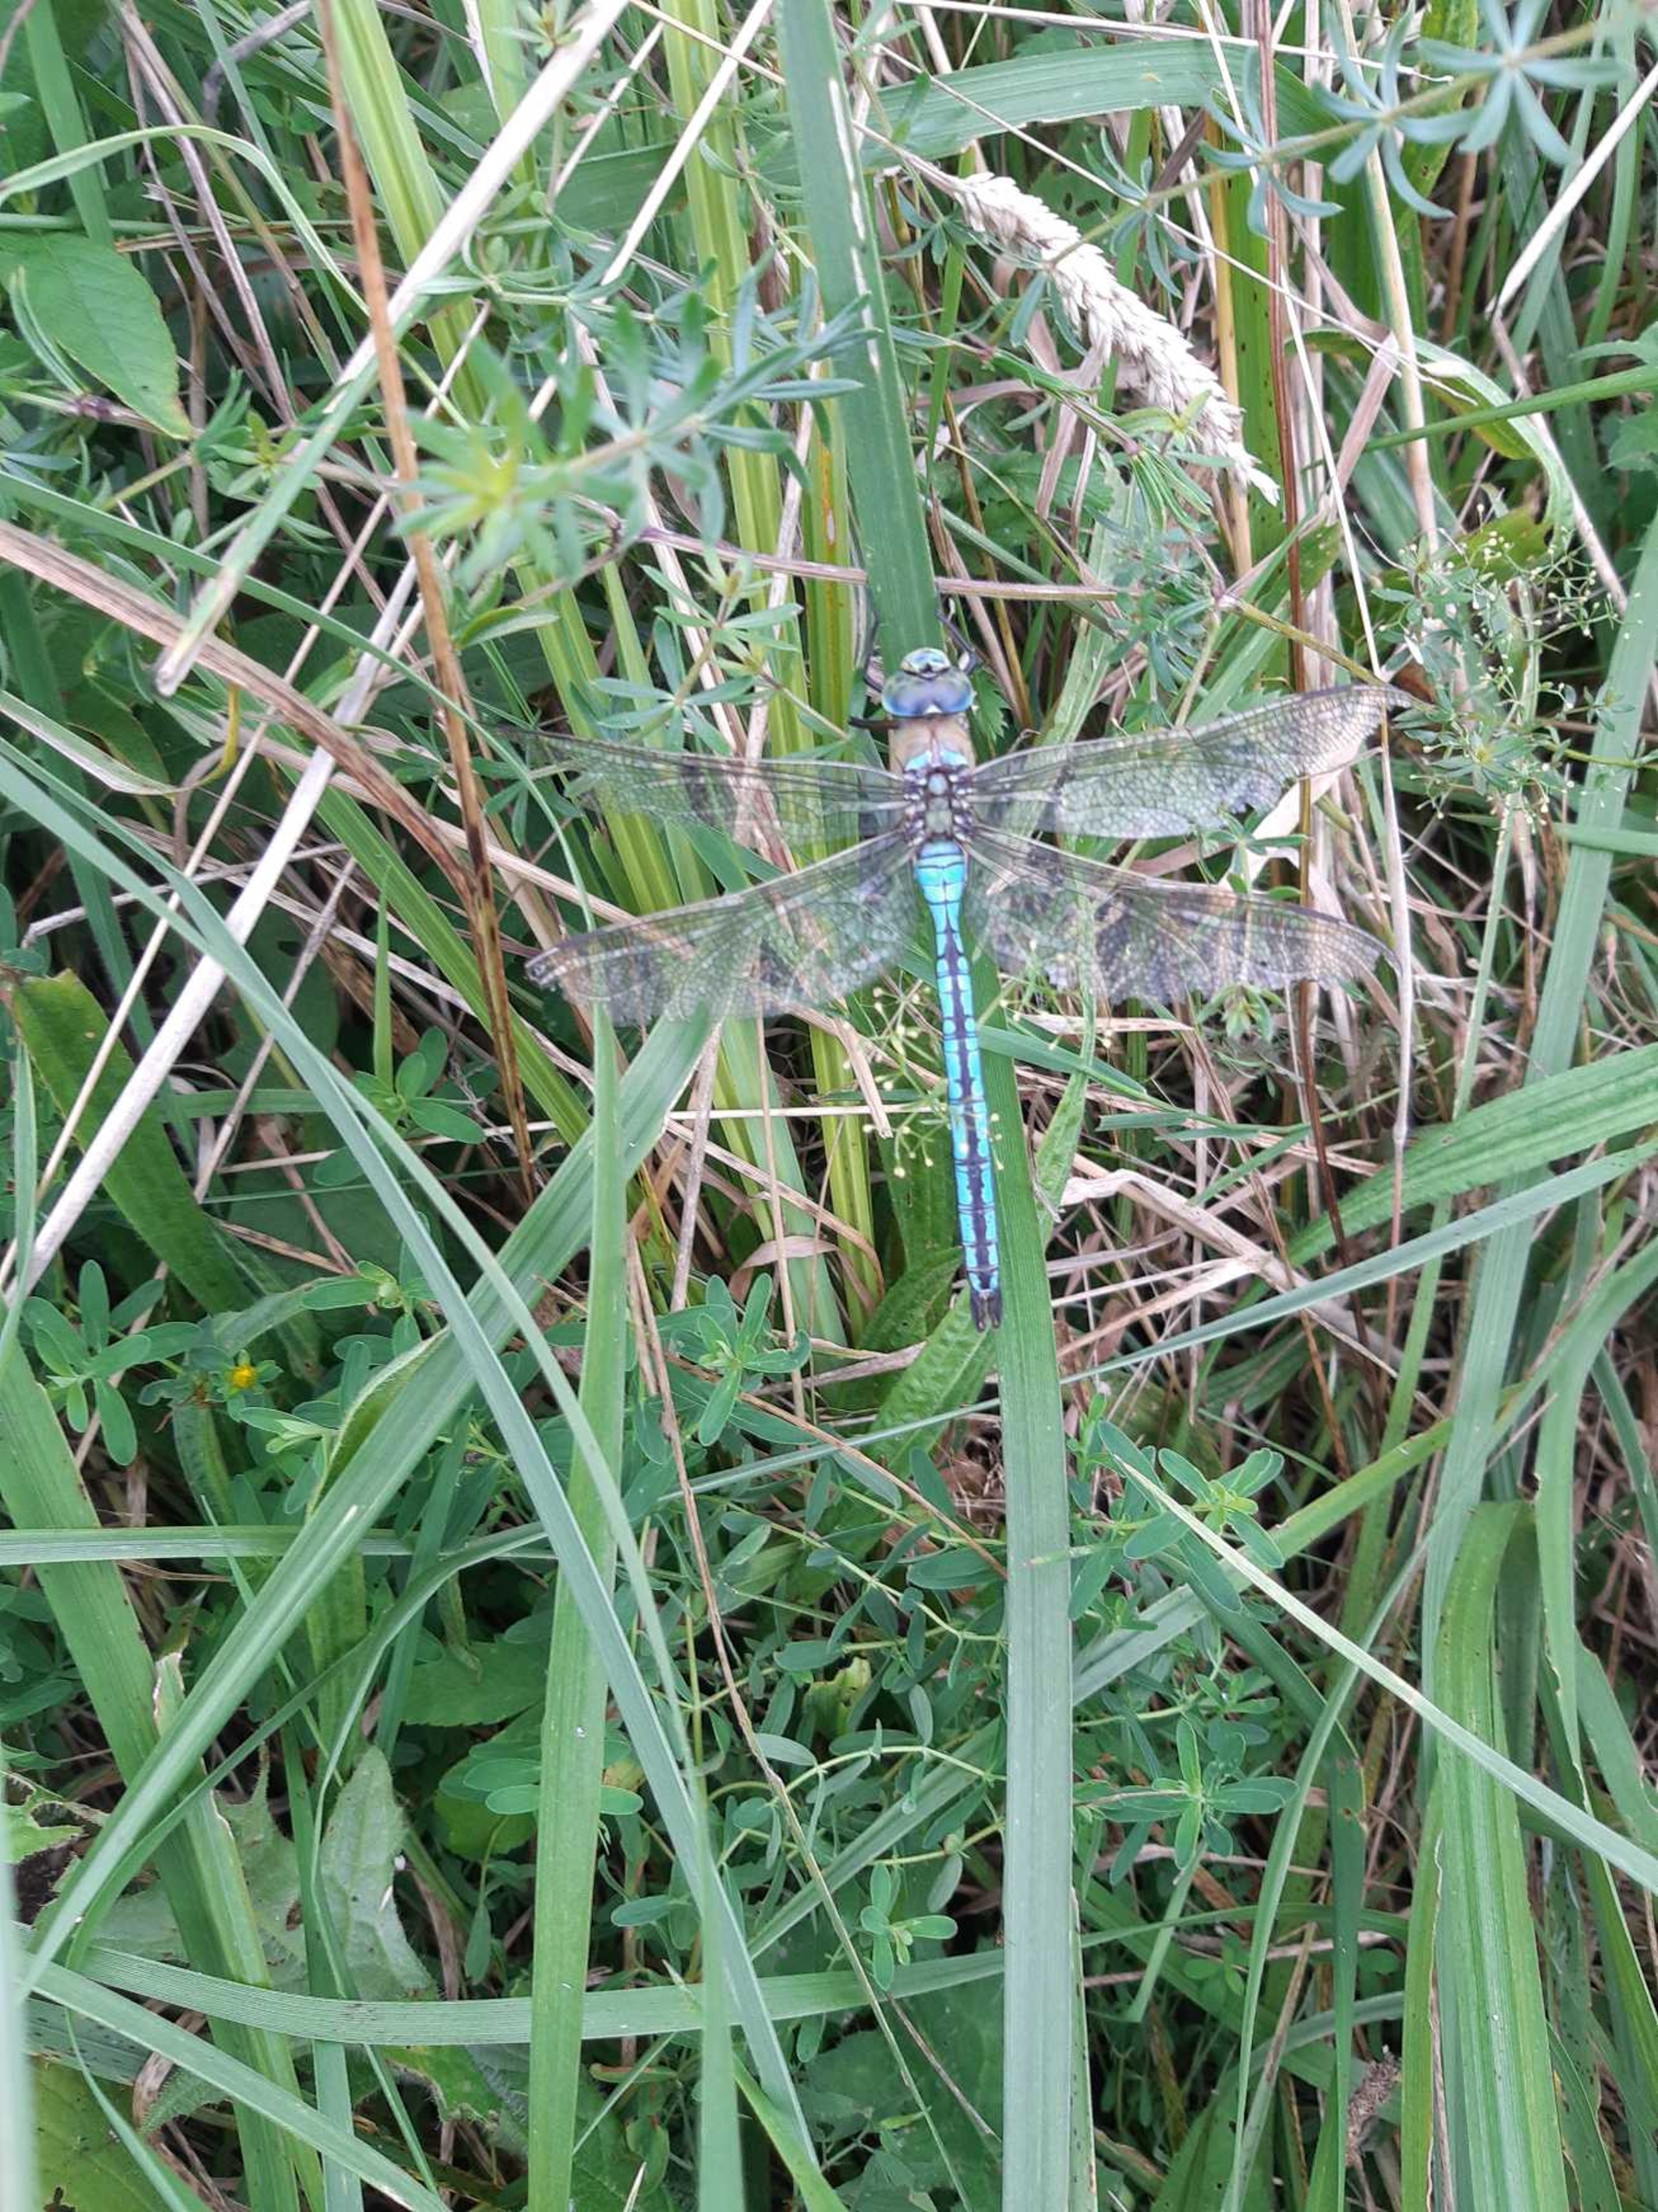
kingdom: Animalia
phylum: Arthropoda
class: Insecta
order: Odonata
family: Aeshnidae
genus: Anax
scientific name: Anax imperator
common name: Stor kejserguldsmed
